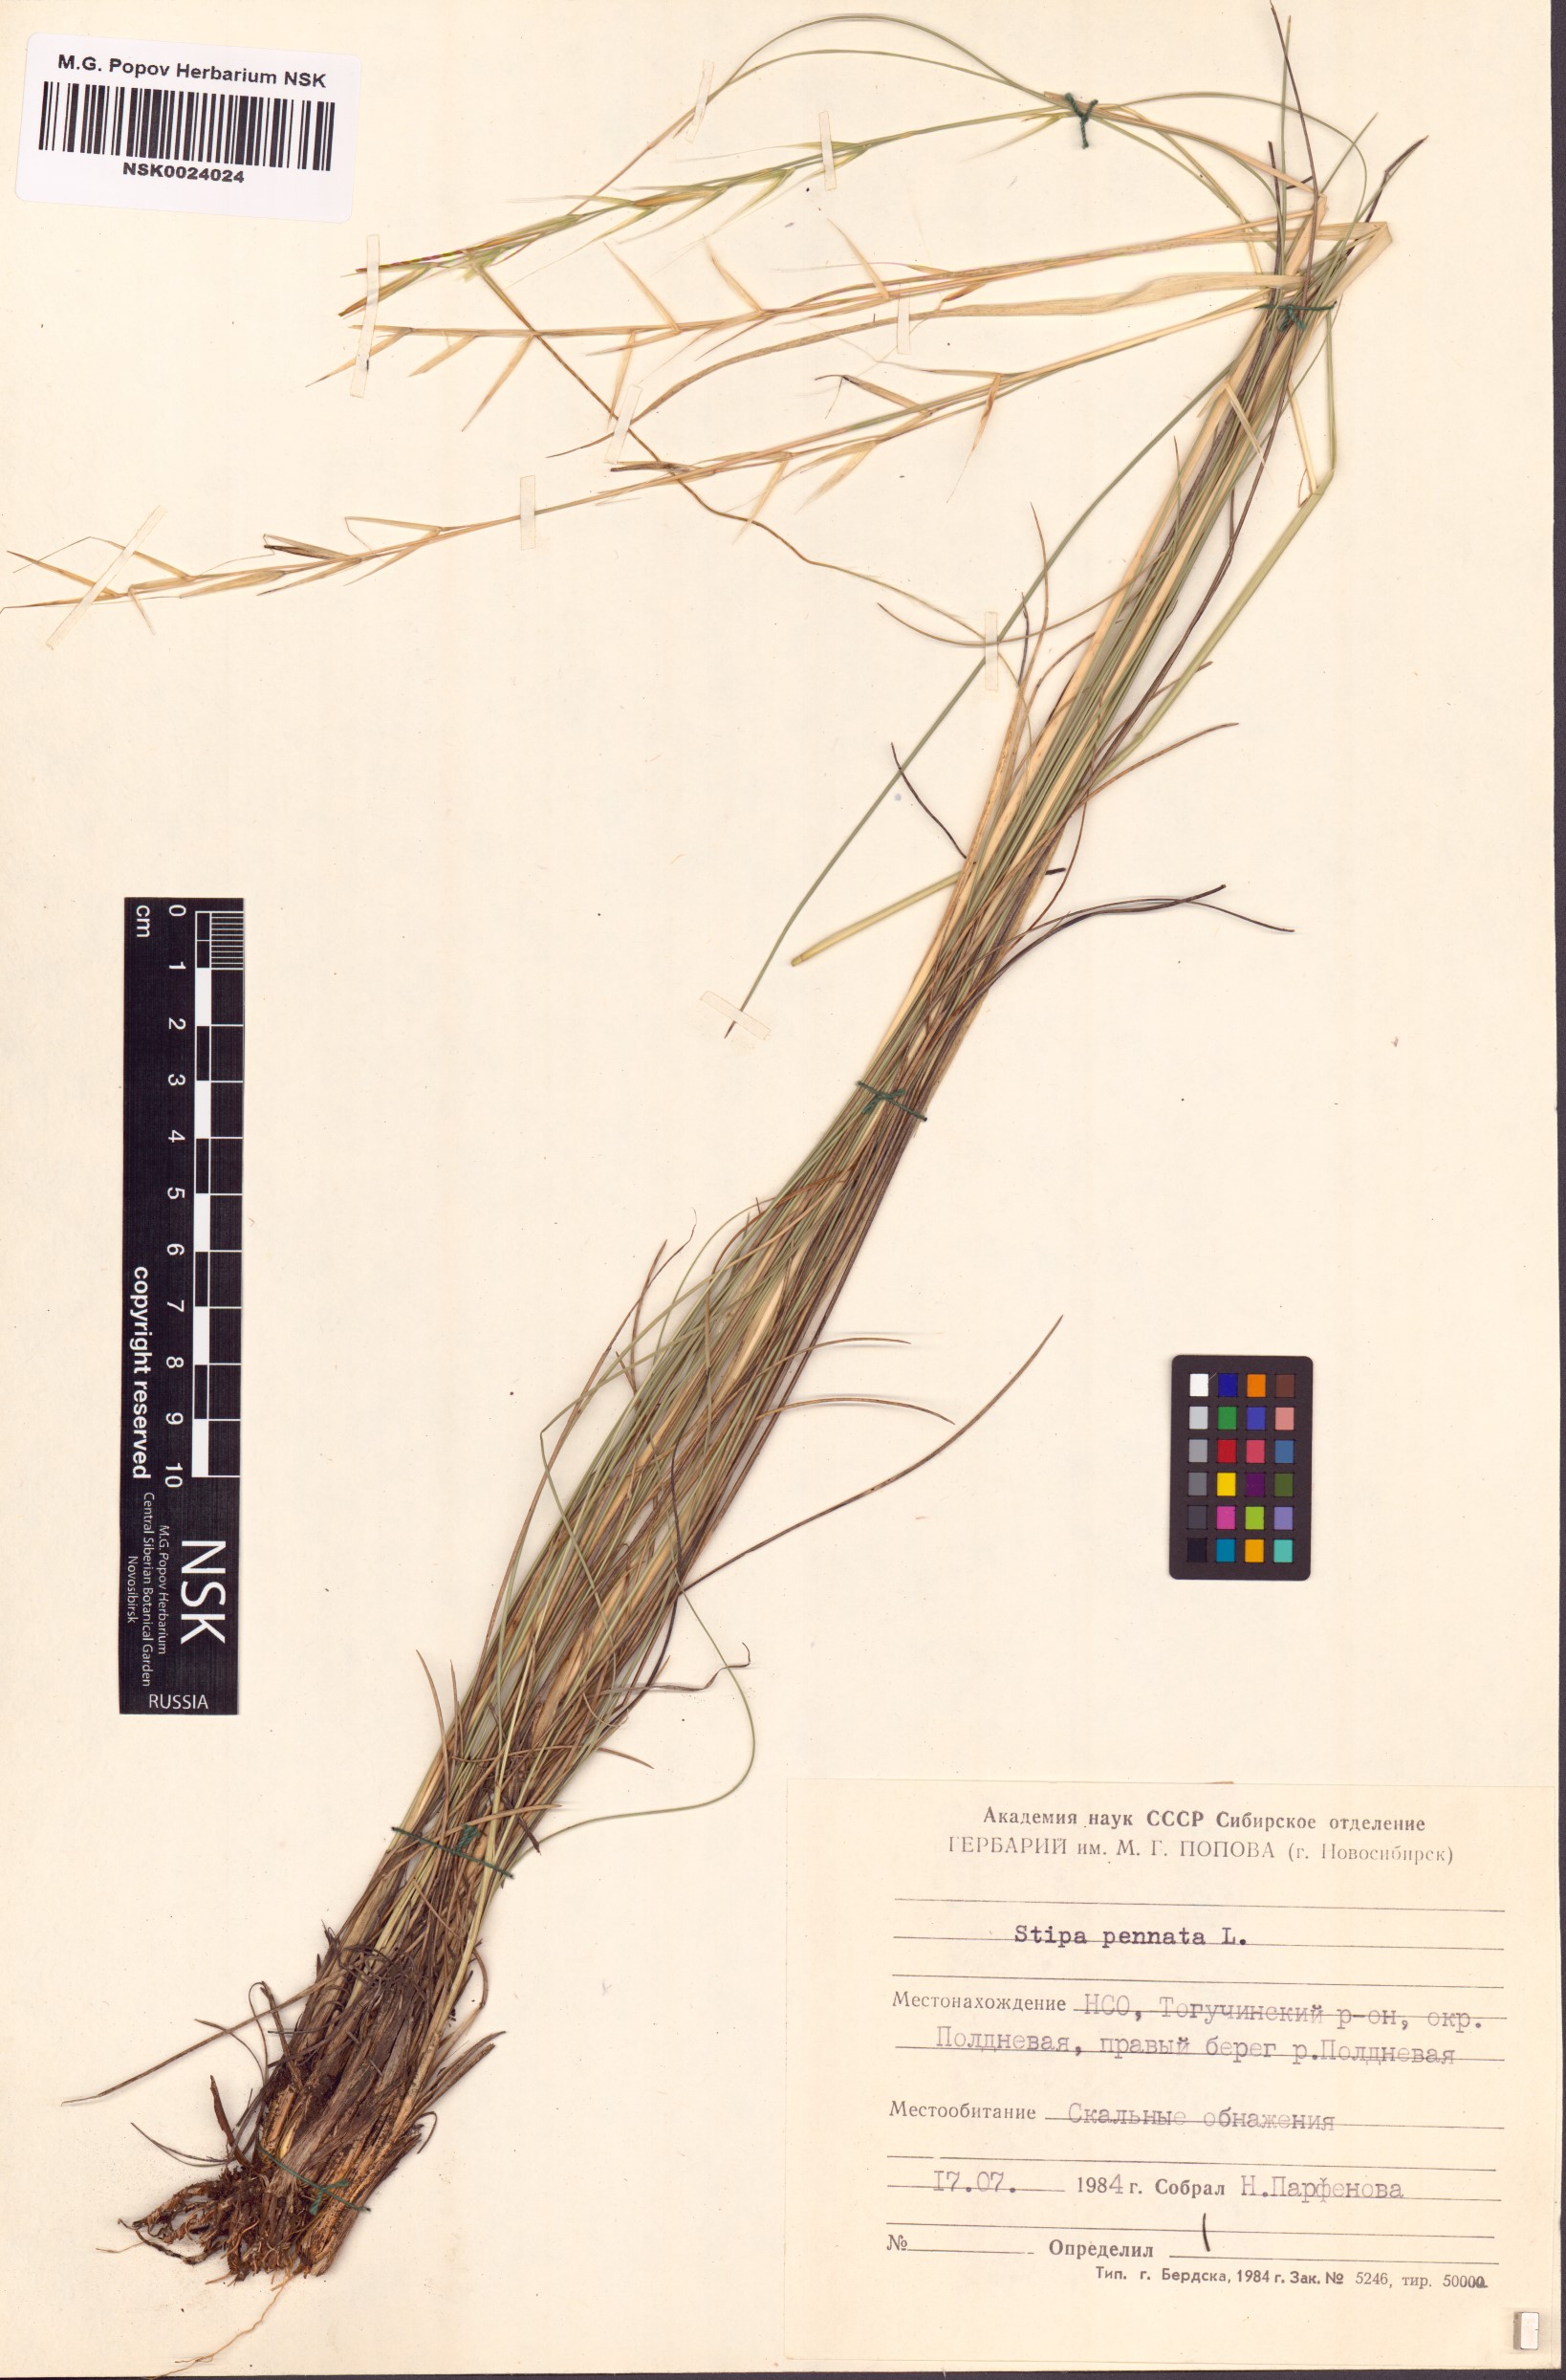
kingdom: Plantae
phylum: Tracheophyta
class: Liliopsida
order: Poales
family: Poaceae
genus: Stipa
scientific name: Stipa pennata
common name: European feather grass
